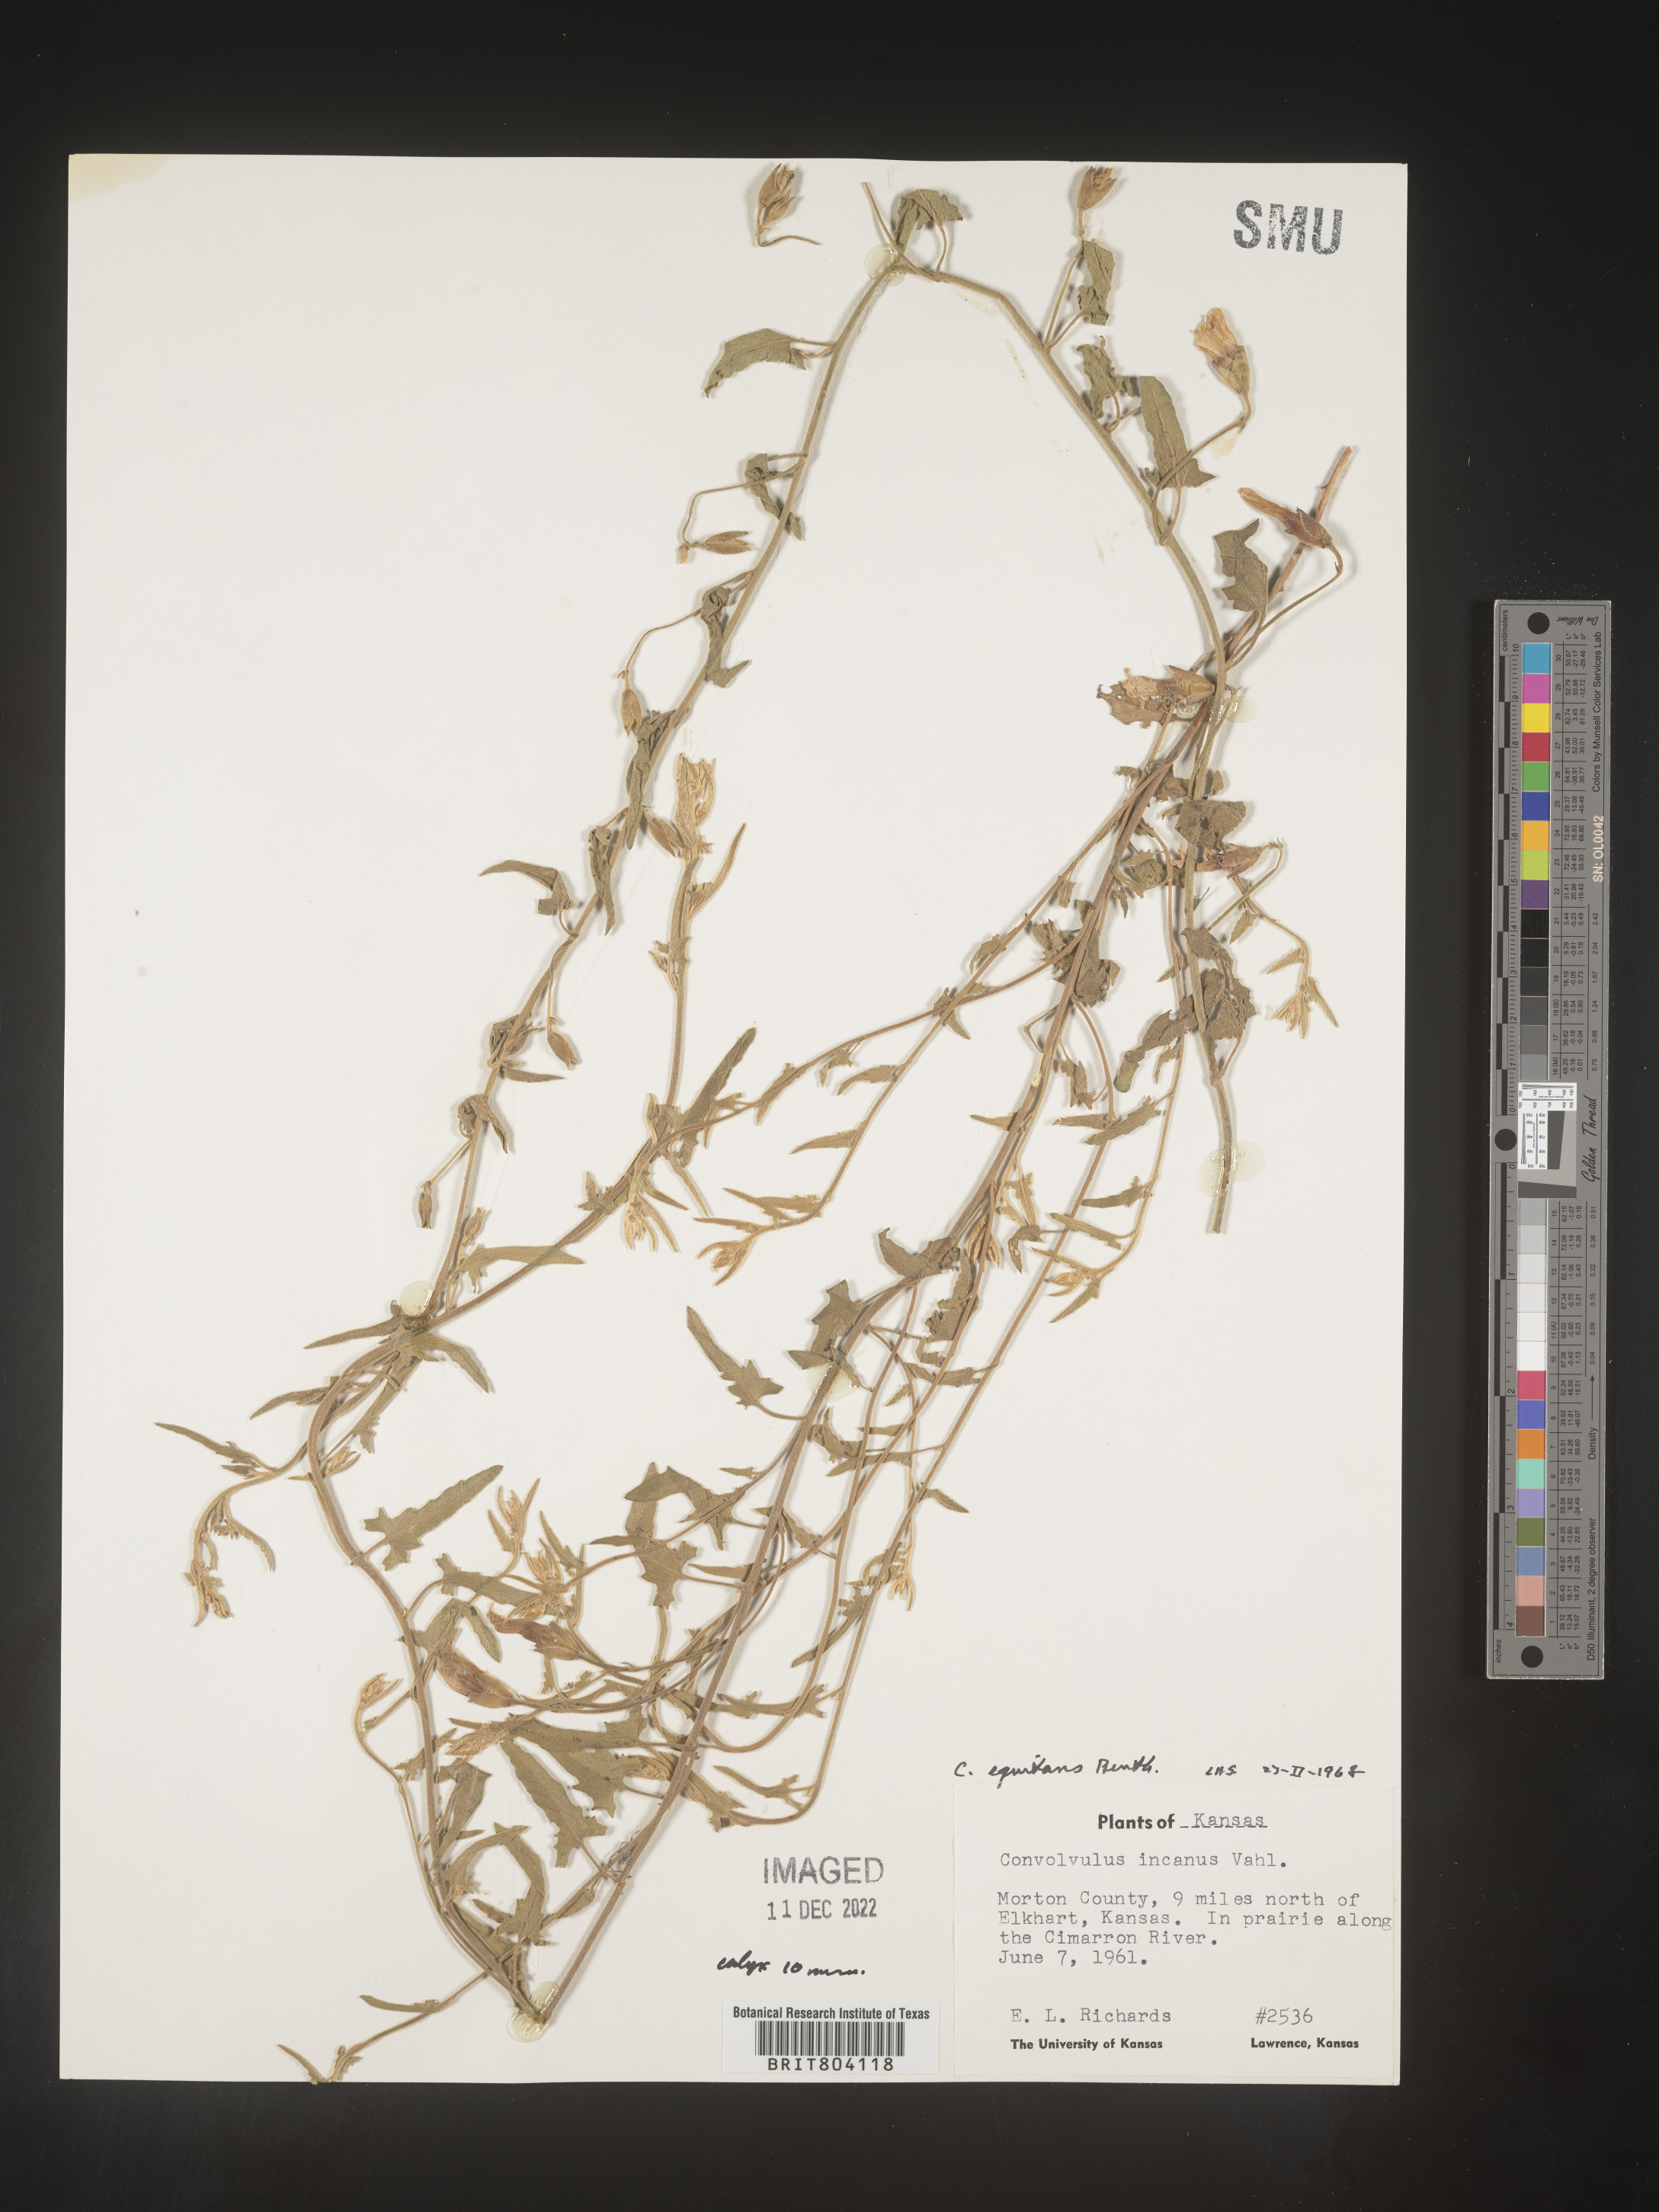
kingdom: Plantae
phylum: Tracheophyta
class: Magnoliopsida
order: Solanales
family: Convolvulaceae
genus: Convolvulus
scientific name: Convolvulus equitans
